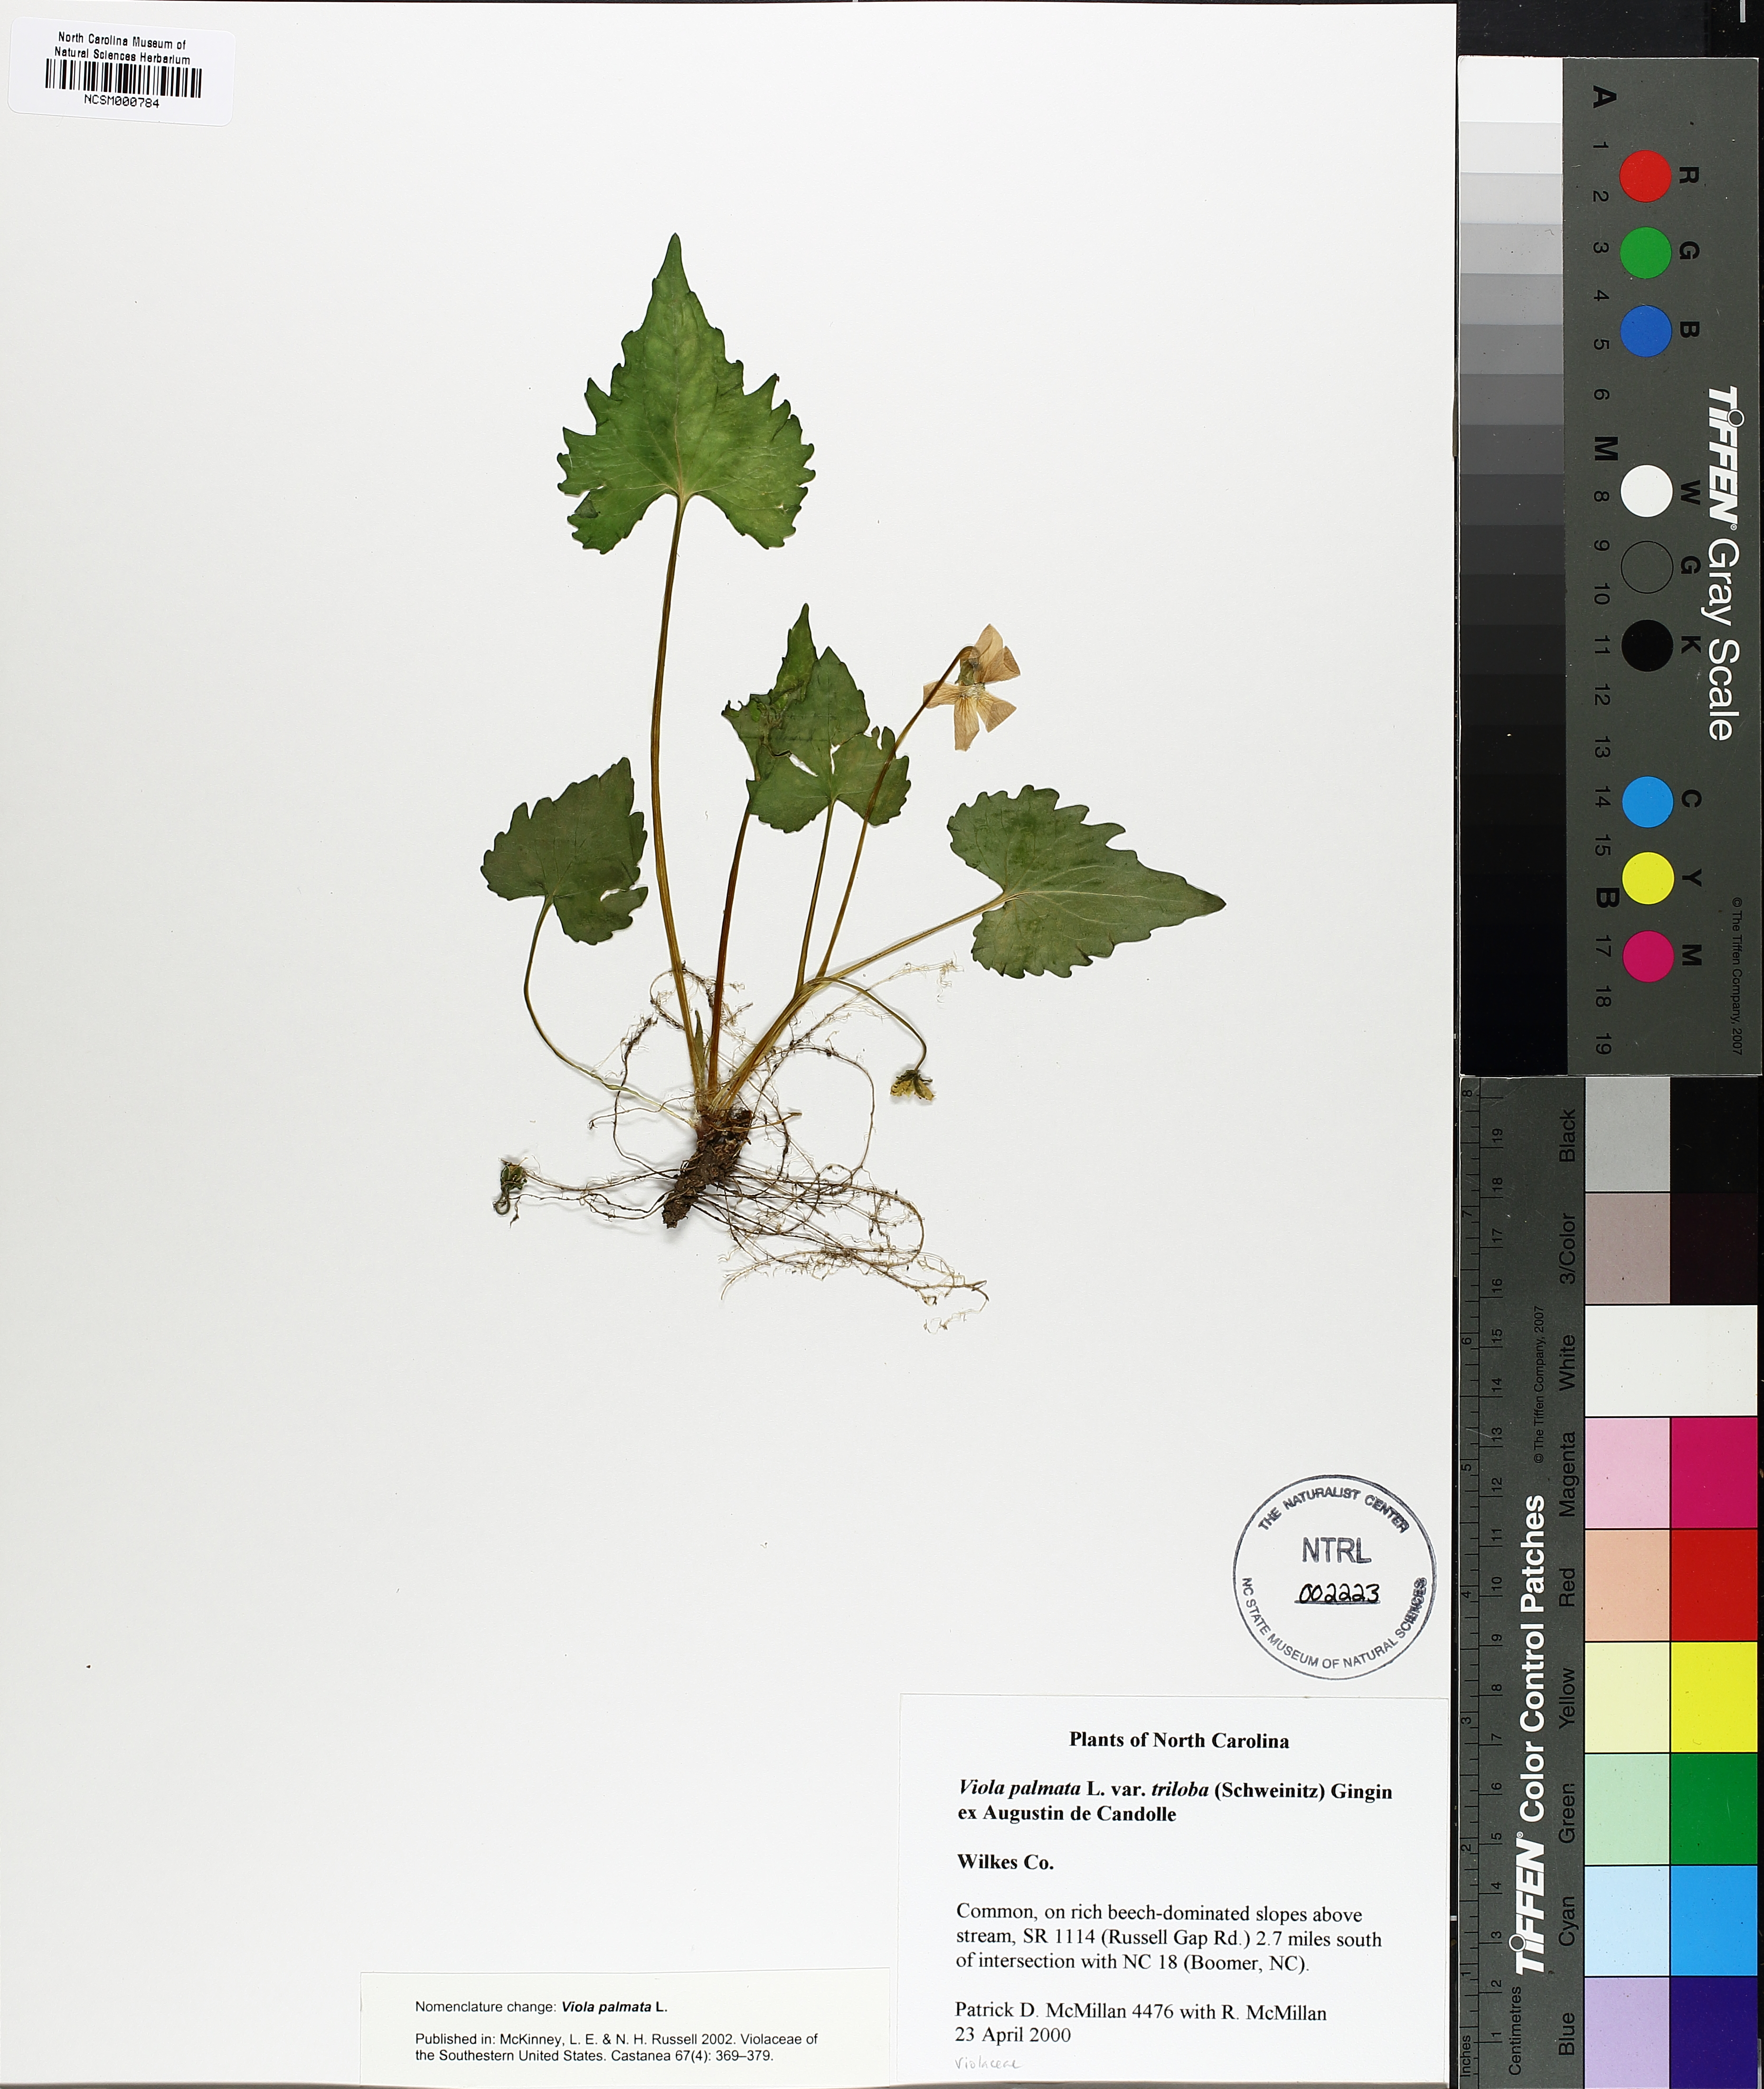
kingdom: Plantae
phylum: Tracheophyta
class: Magnoliopsida
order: Malpighiales
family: Violaceae
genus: Viola
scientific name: Viola palmata
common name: Early blue violet
